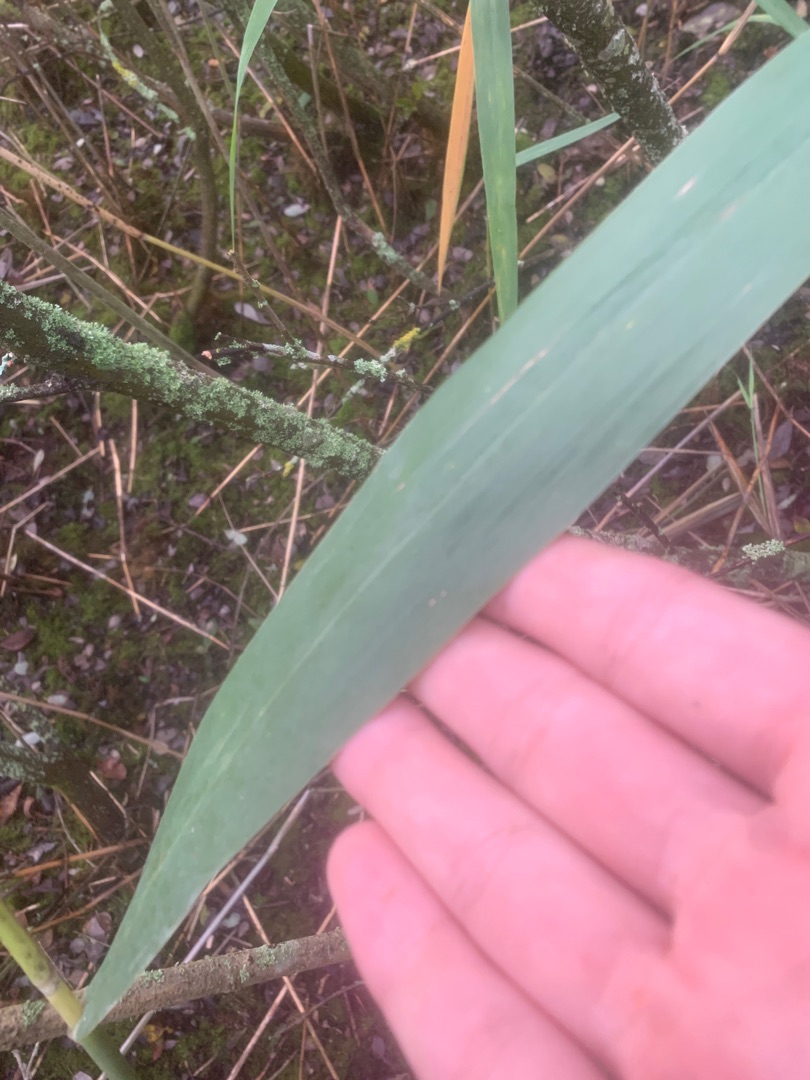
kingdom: Plantae
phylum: Tracheophyta
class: Liliopsida
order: Poales
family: Poaceae
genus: Phragmites
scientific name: Phragmites australis
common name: Tagrør
